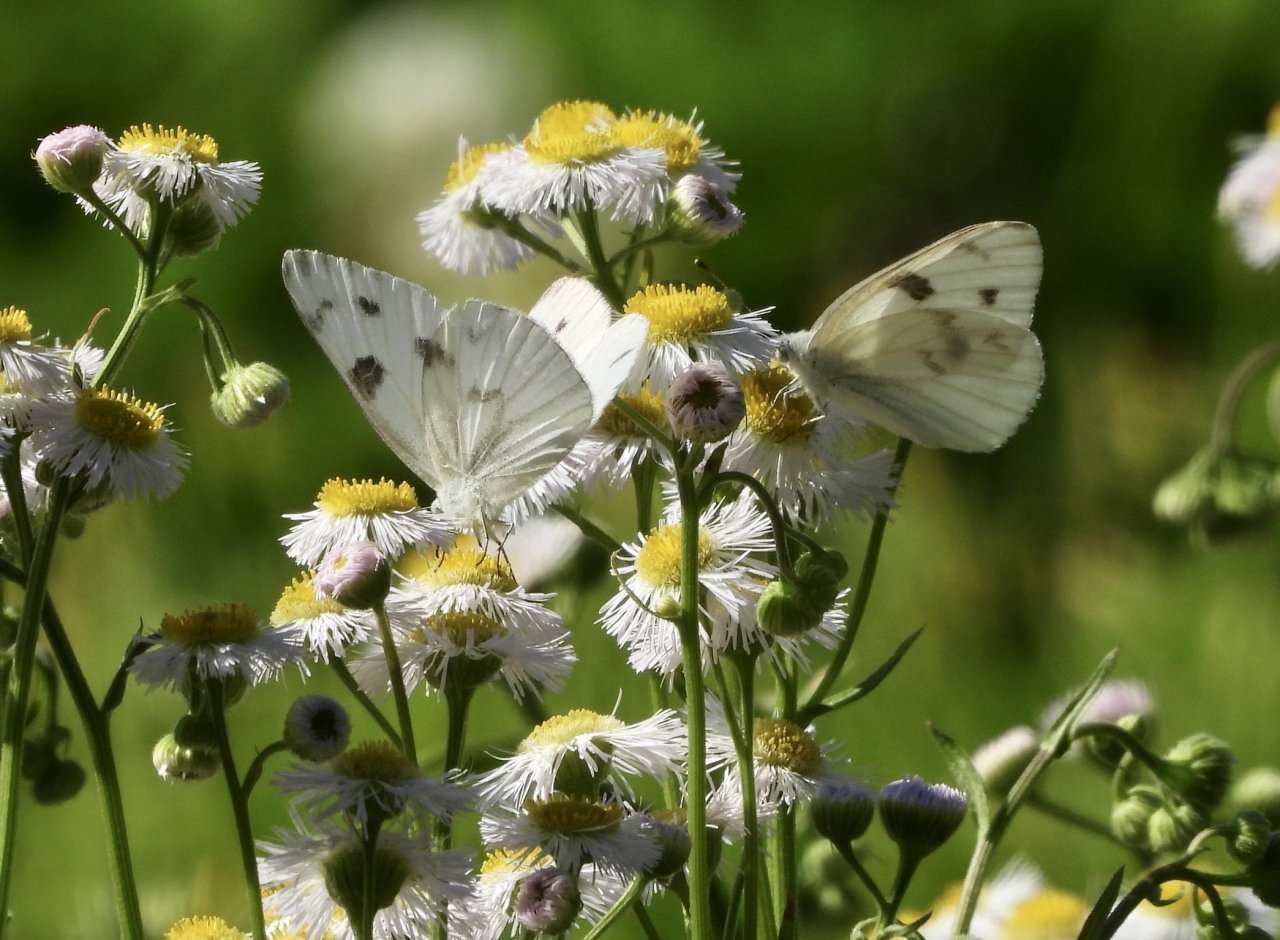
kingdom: Animalia
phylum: Arthropoda
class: Insecta
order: Lepidoptera
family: Pieridae
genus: Pontia
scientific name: Pontia protodice
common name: Checkered White
